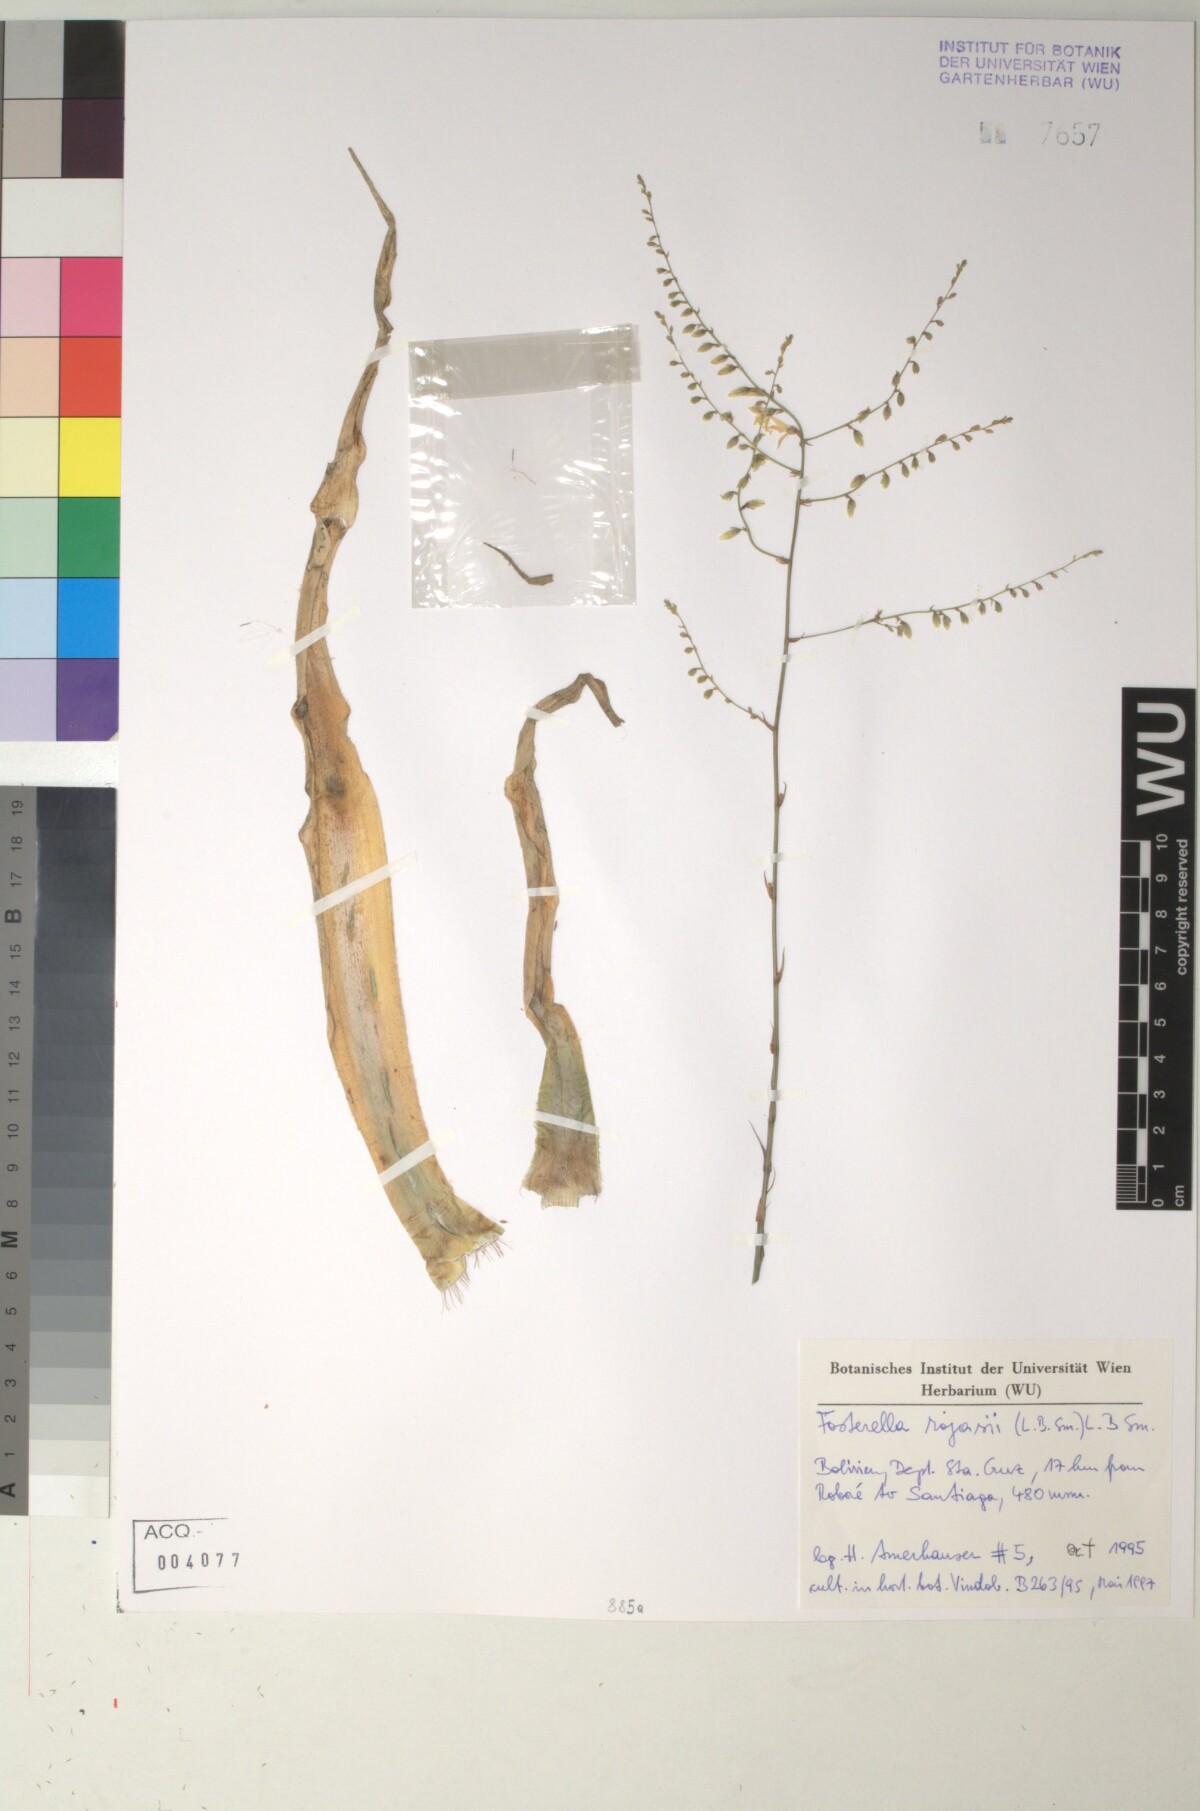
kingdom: Plantae
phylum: Tracheophyta
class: Liliopsida
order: Poales
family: Bromeliaceae
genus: Fosterella
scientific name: Fosterella yuvinkae
